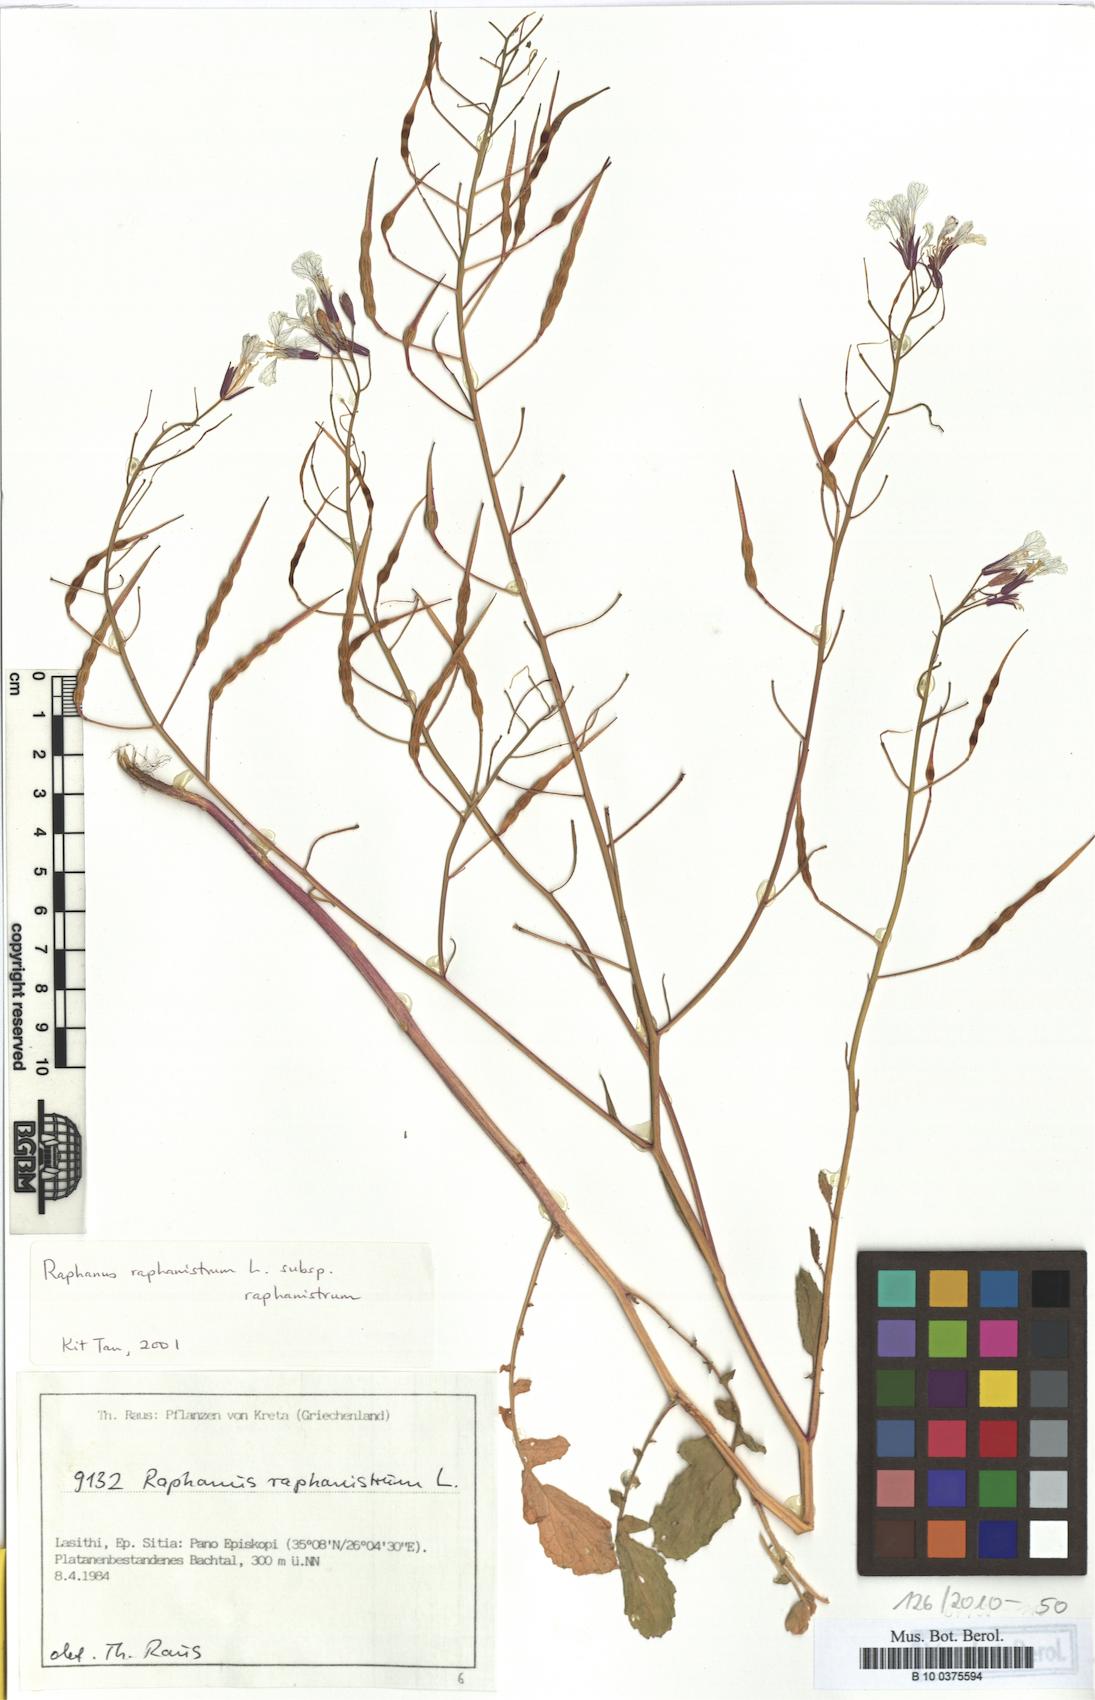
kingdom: Plantae
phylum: Tracheophyta
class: Magnoliopsida
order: Brassicales
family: Brassicaceae
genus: Raphanus
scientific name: Raphanus raphanistrum
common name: Wild radish
